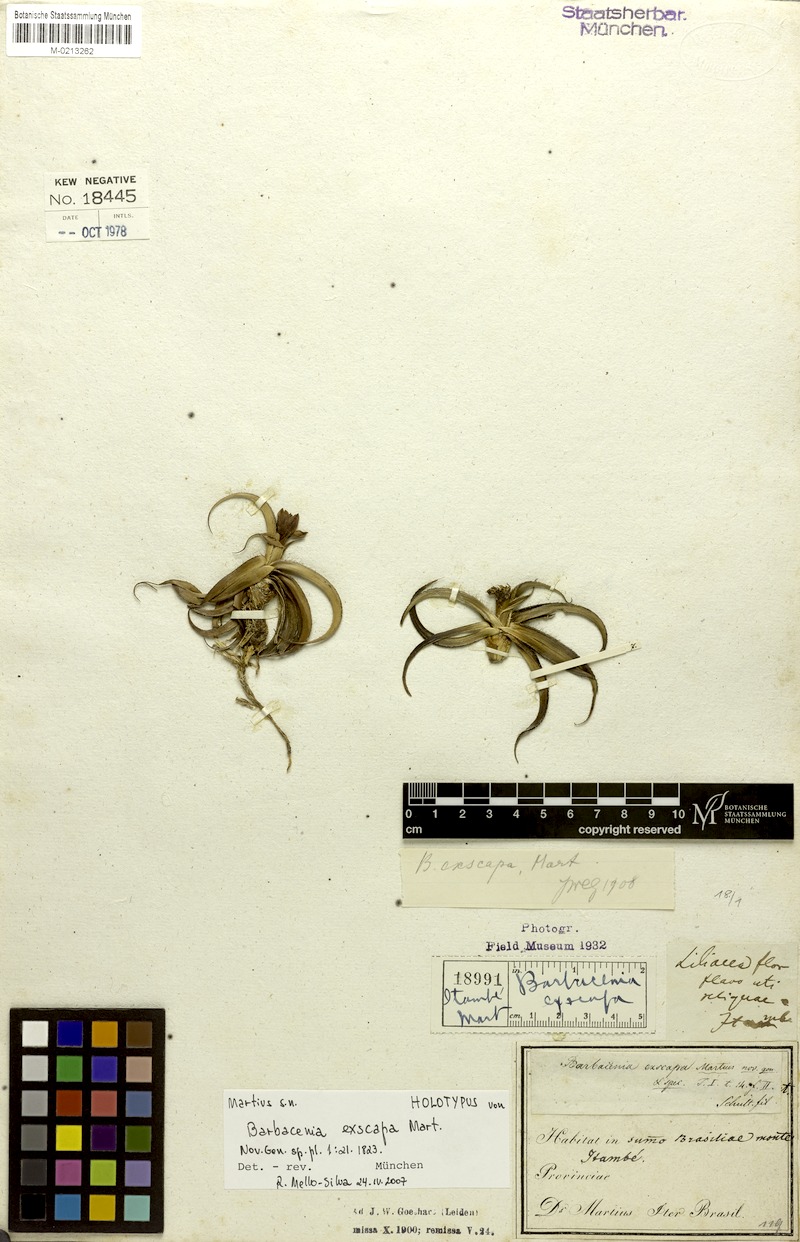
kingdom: Plantae
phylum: Tracheophyta
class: Liliopsida
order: Pandanales
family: Velloziaceae
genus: Barbacenia
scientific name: Barbacenia exscapa
